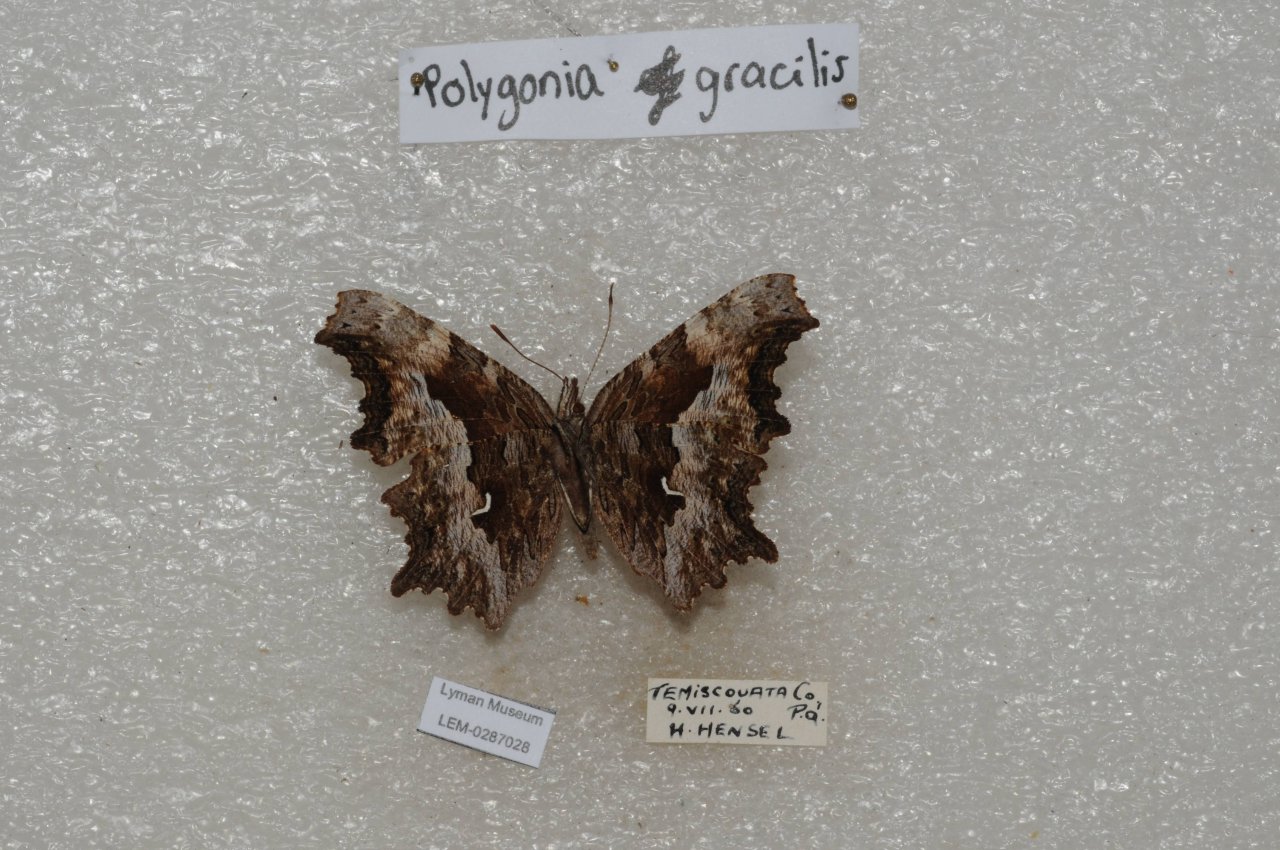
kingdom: Animalia
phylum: Arthropoda
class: Insecta
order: Lepidoptera
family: Nymphalidae
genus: Polygonia
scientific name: Polygonia gracilis
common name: Hoary Comma
